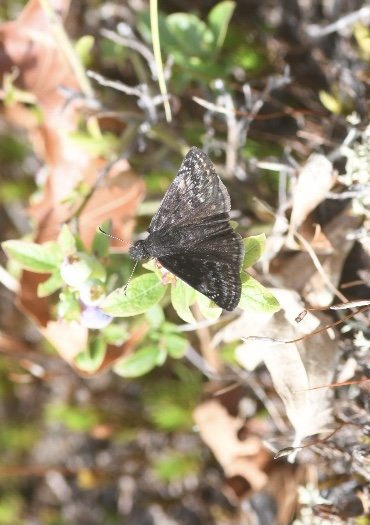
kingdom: Animalia
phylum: Arthropoda
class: Insecta
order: Lepidoptera
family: Hesperiidae
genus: Gesta
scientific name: Gesta
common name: Columbine Duskywing
